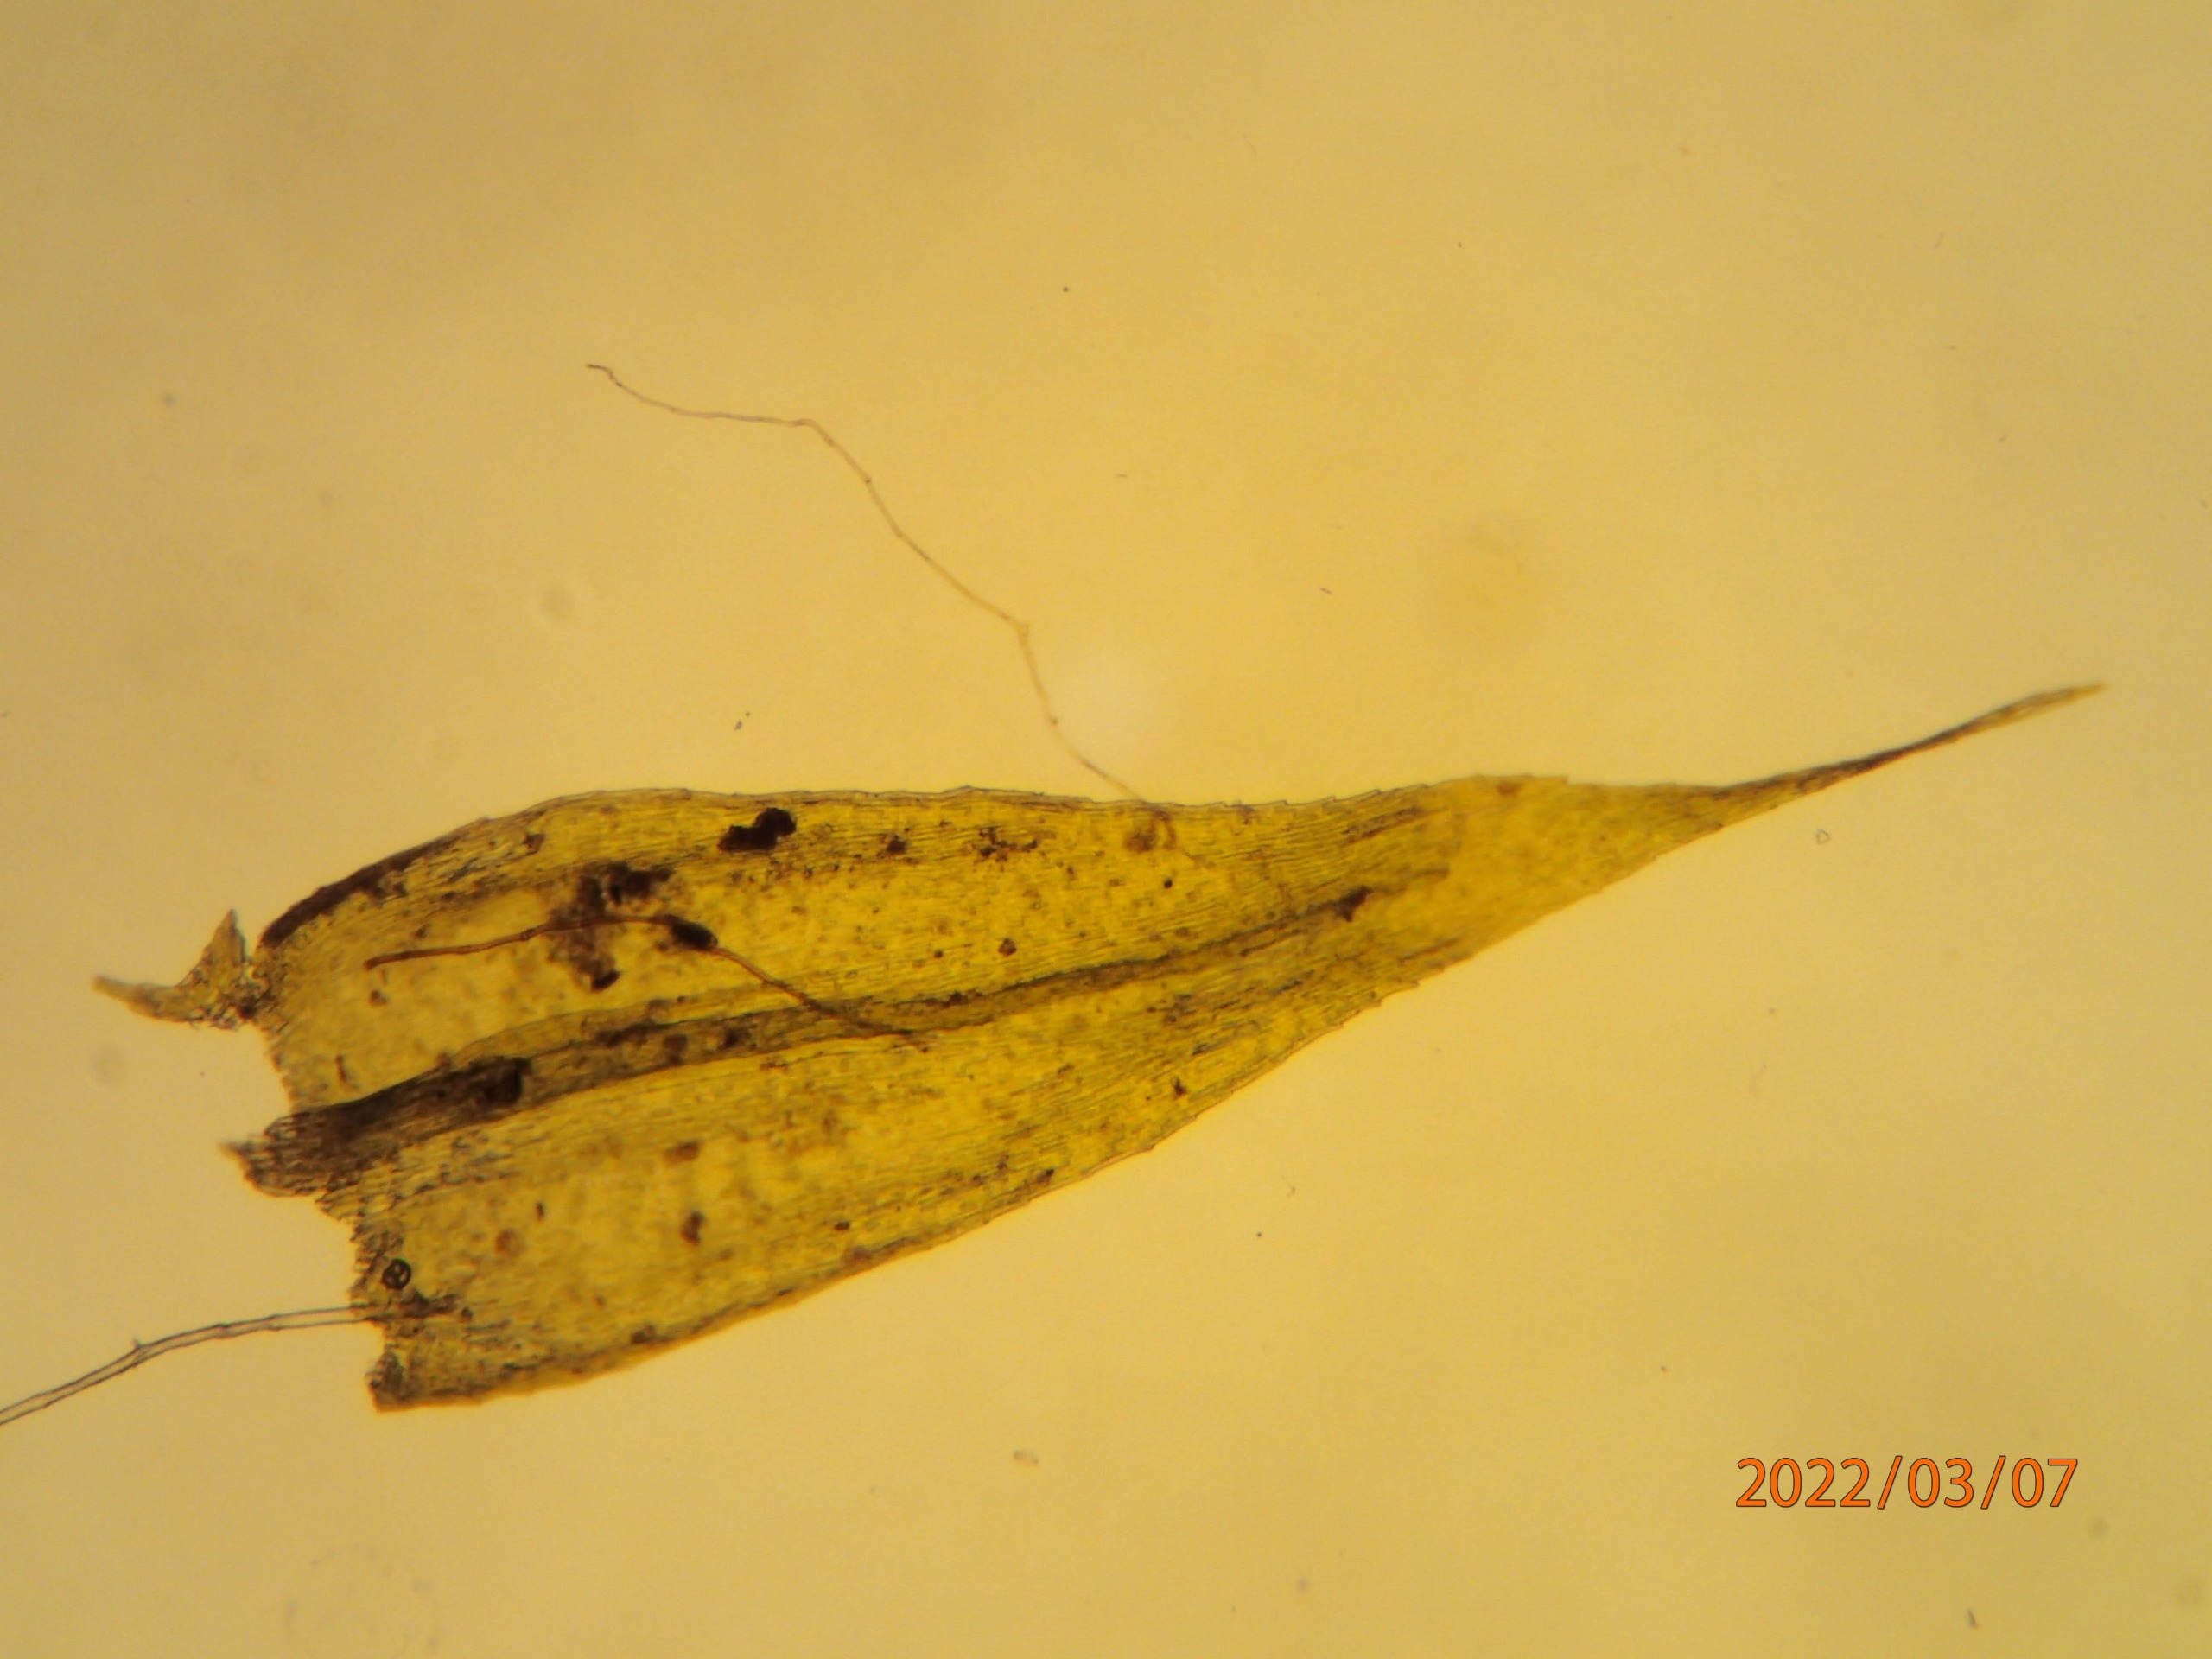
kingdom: Plantae
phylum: Bryophyta
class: Bryopsida
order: Hypnales
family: Brachytheciaceae
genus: Brachytheciastrum
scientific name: Brachytheciastrum velutinum
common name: Fløjls-kortkapsel
